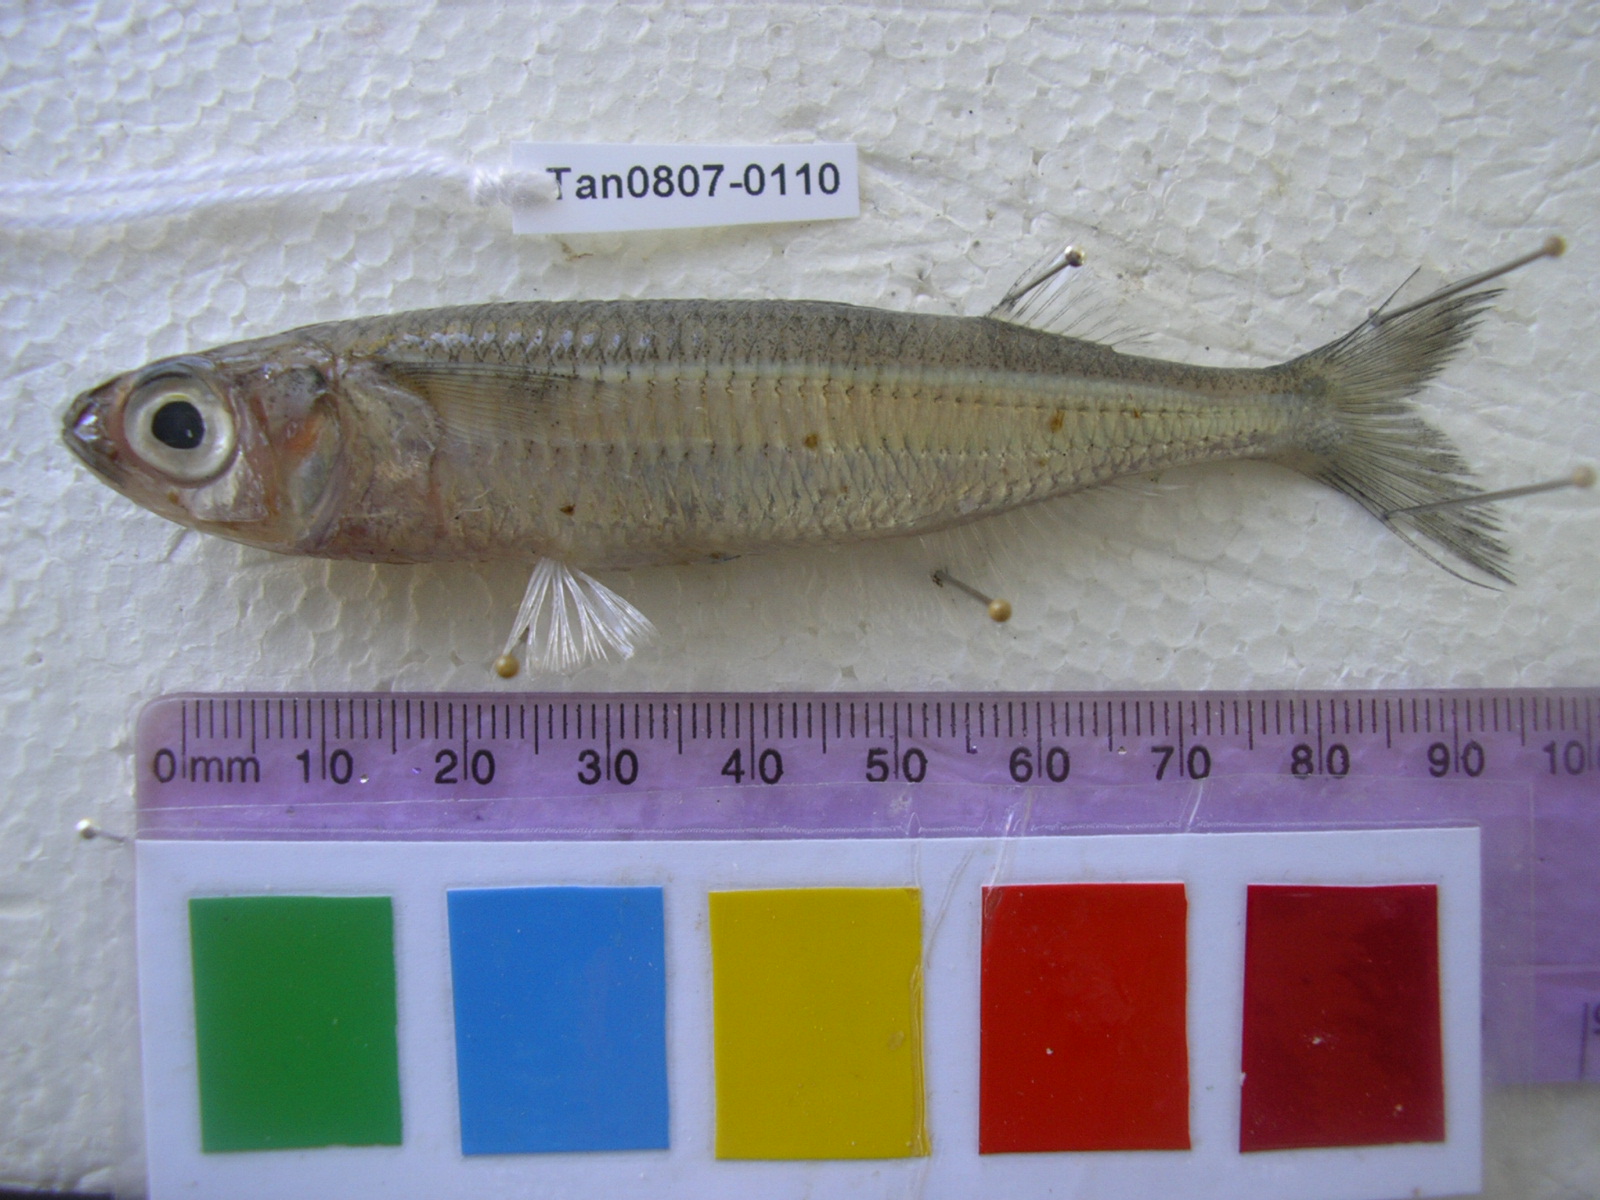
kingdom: Animalia
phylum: Chordata
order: Atheriniformes
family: Atherinidae
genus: Atherinomorus
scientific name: Atherinomorus lacunosus
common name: Hardyhead silverside
